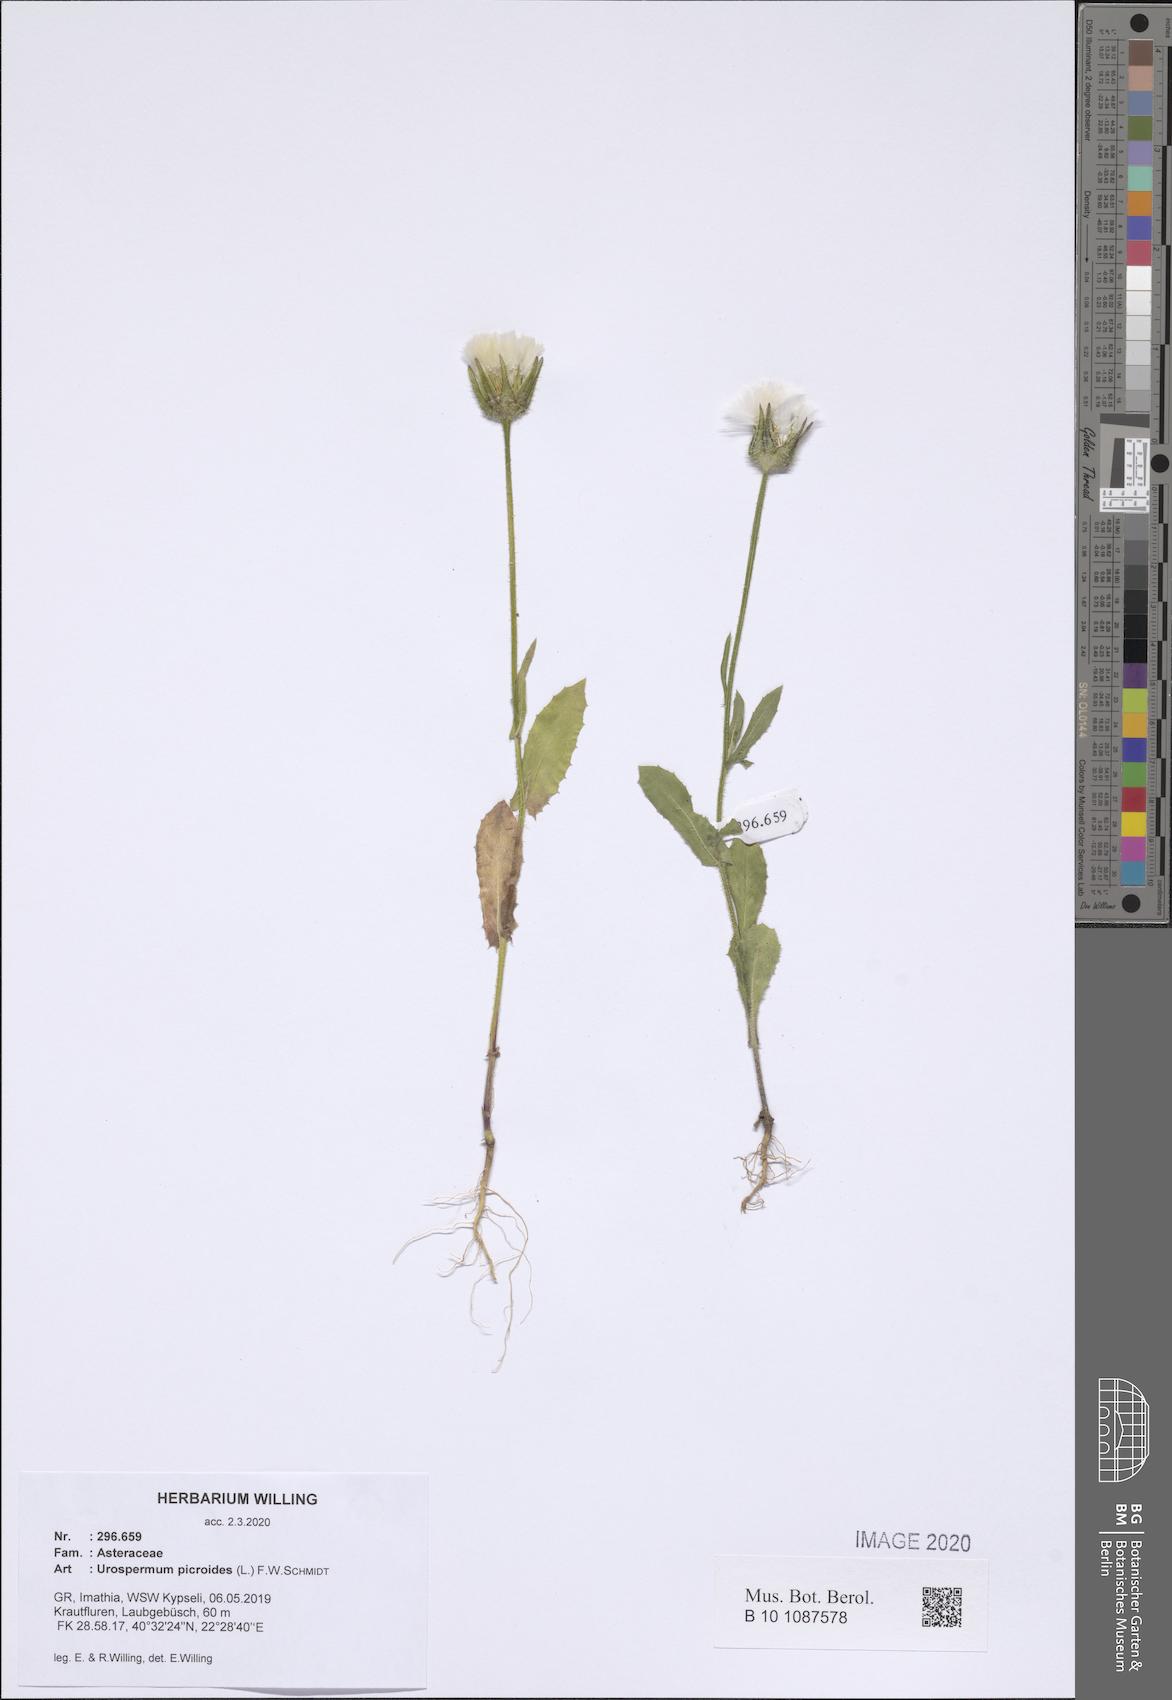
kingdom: Plantae
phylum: Tracheophyta
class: Magnoliopsida
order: Asterales
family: Asteraceae
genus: Urospermum
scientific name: Urospermum picroides
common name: False hawkbit
